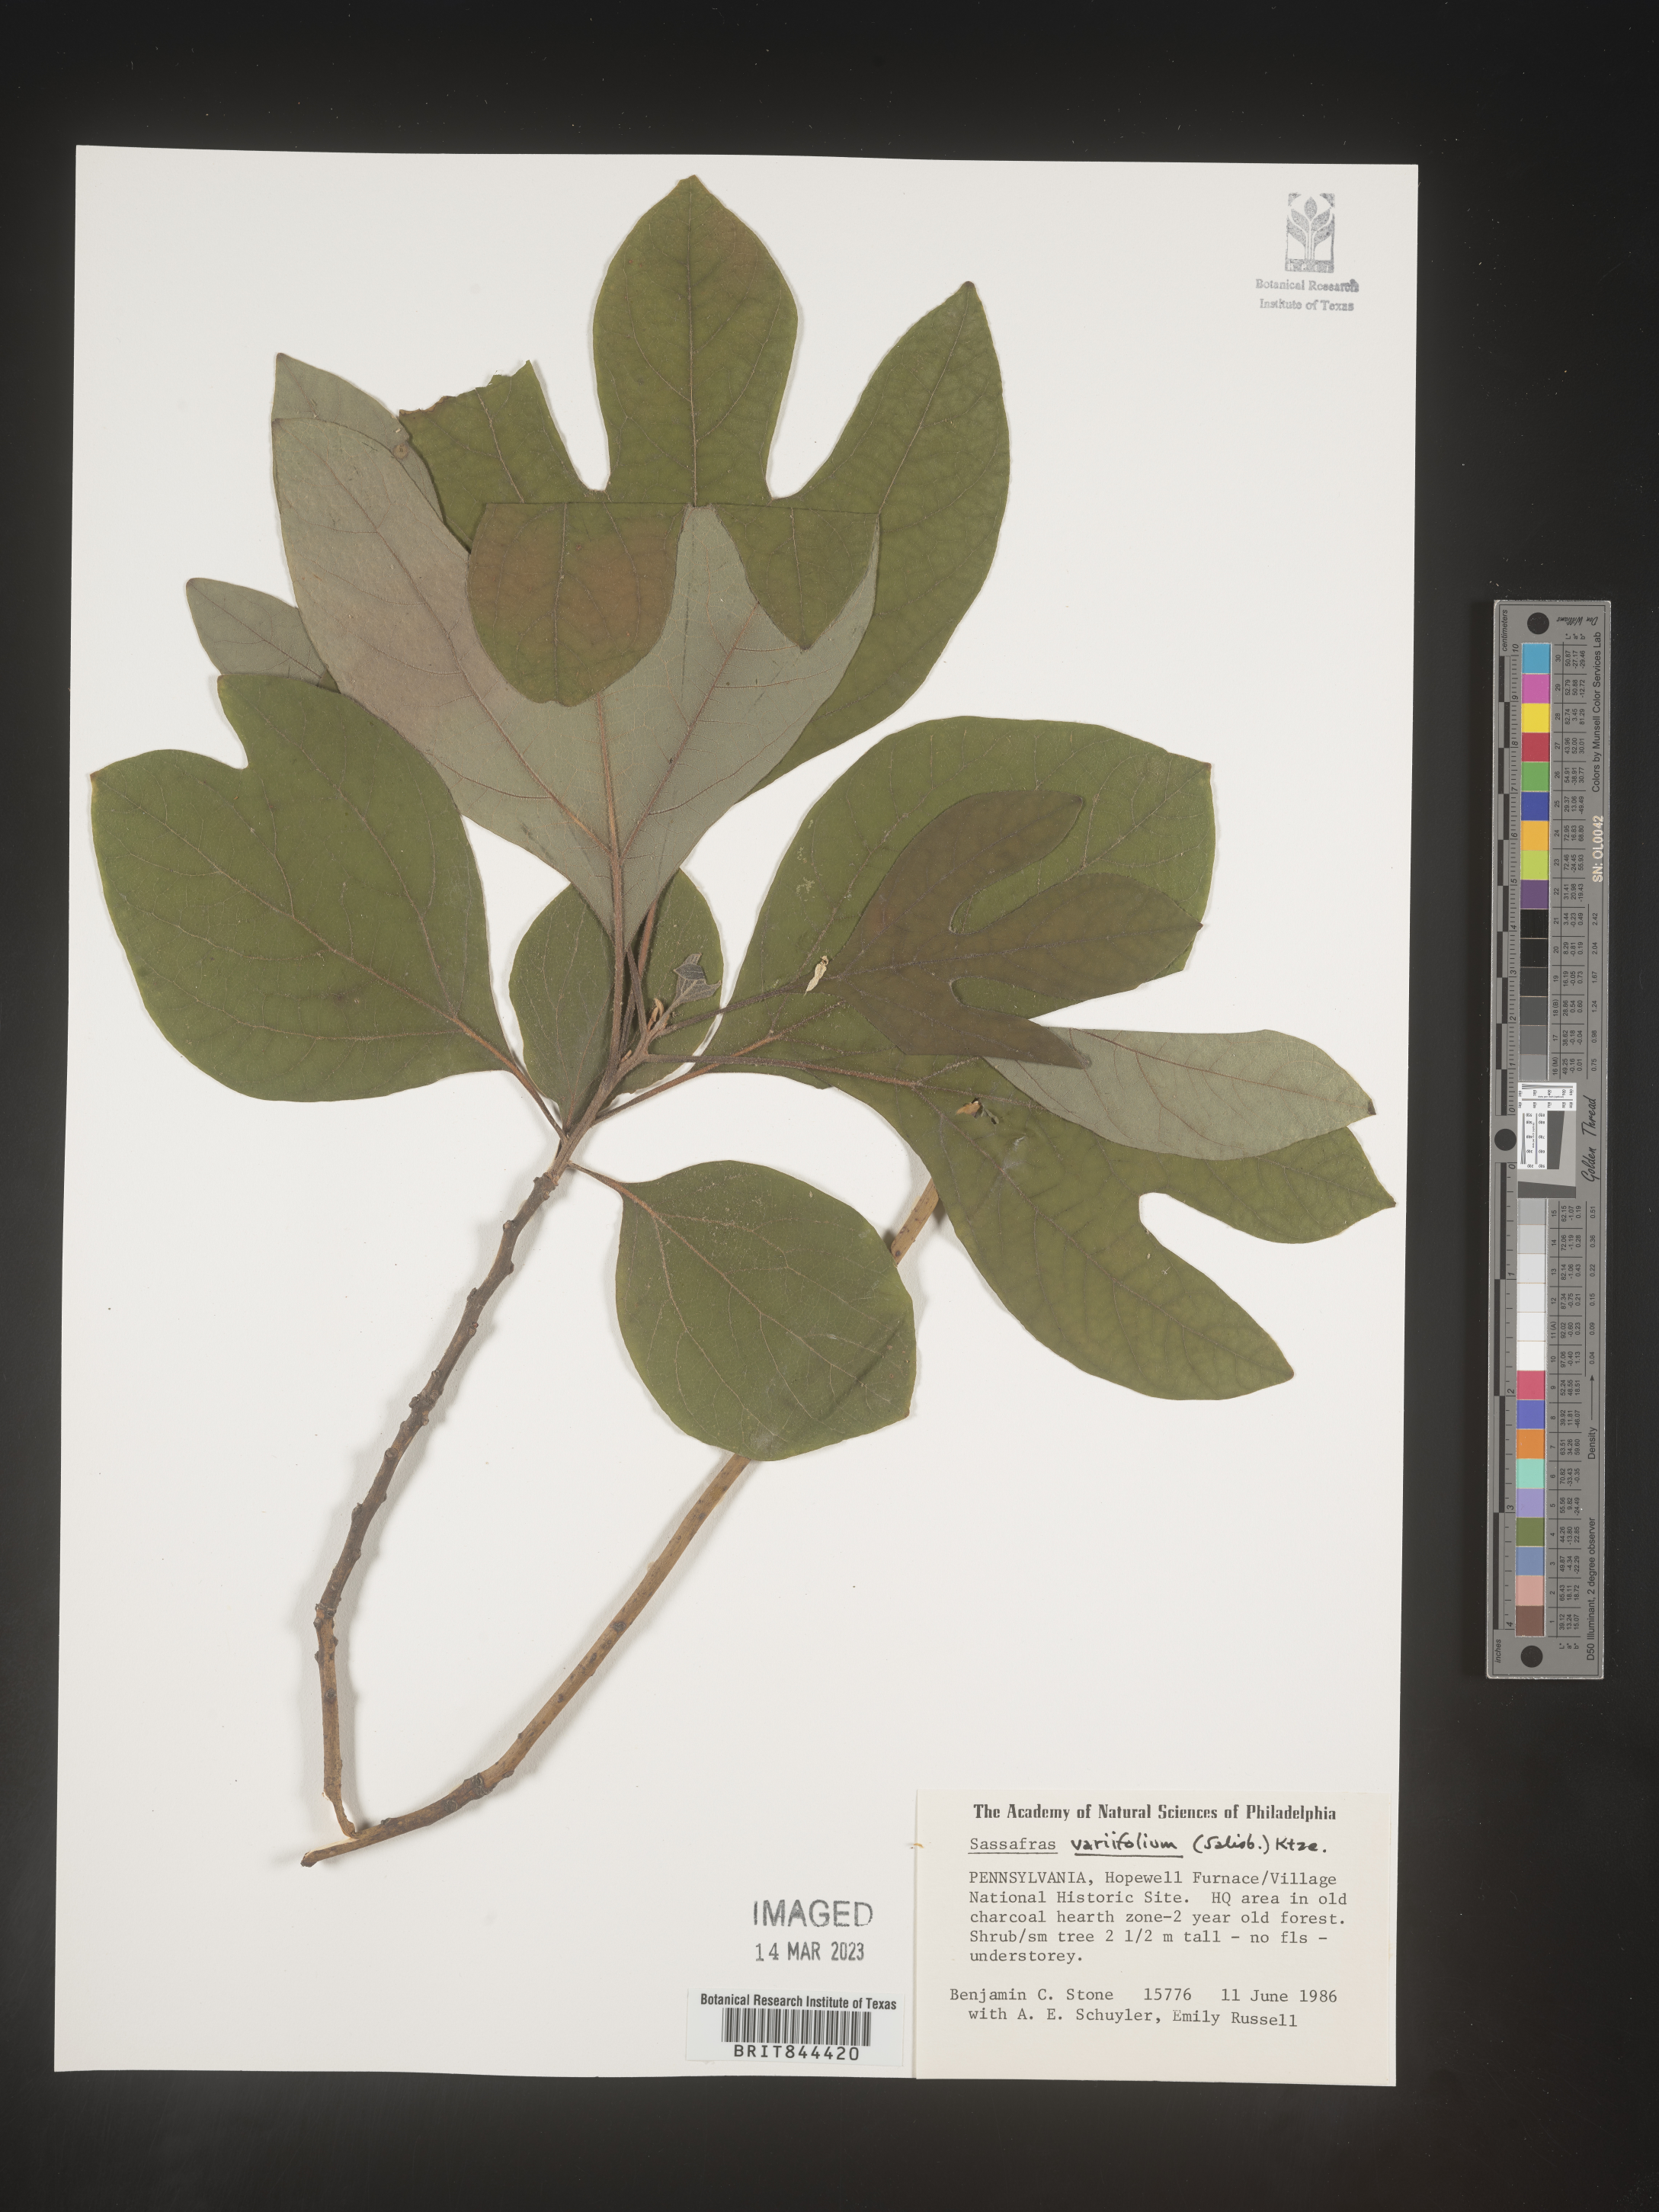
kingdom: Plantae
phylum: Tracheophyta
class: Magnoliopsida
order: Laurales
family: Lauraceae
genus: Sassafras
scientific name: Sassafras albidum
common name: Sassafras
